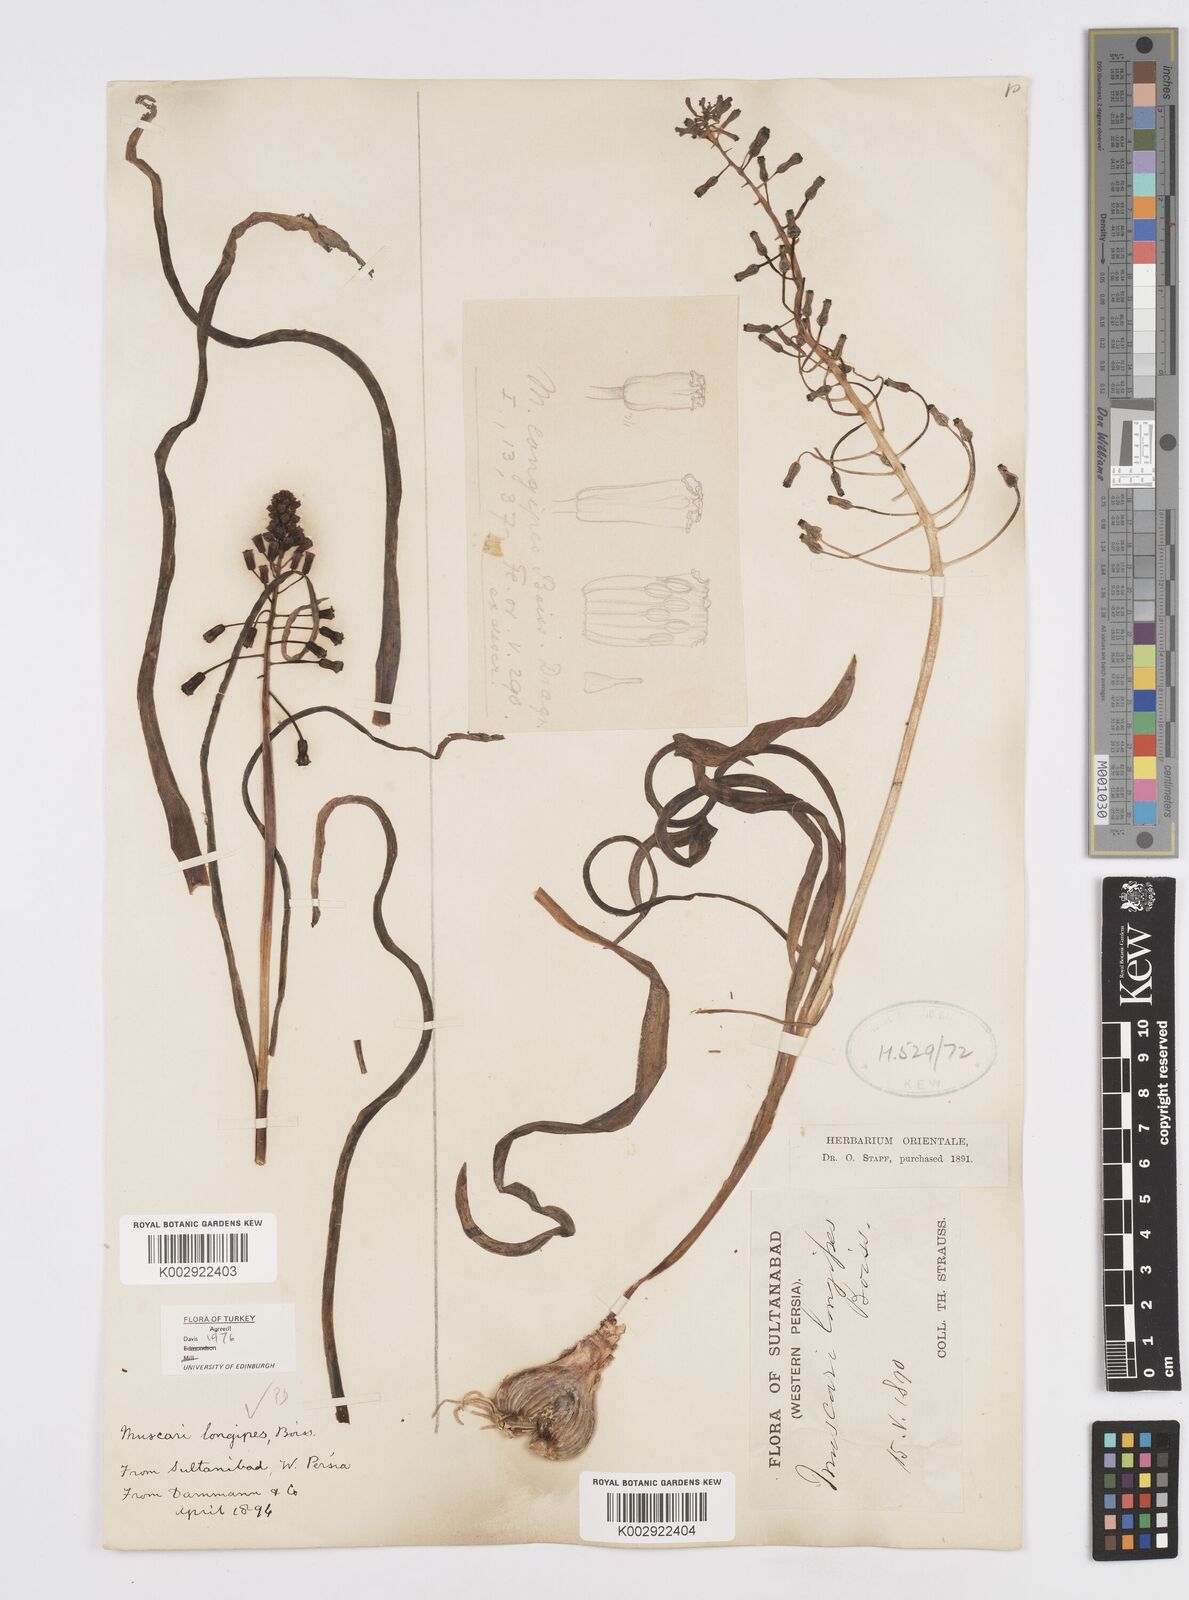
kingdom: Plantae
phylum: Tracheophyta
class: Liliopsida
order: Asparagales
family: Asparagaceae
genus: Muscari
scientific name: Muscari longipes
